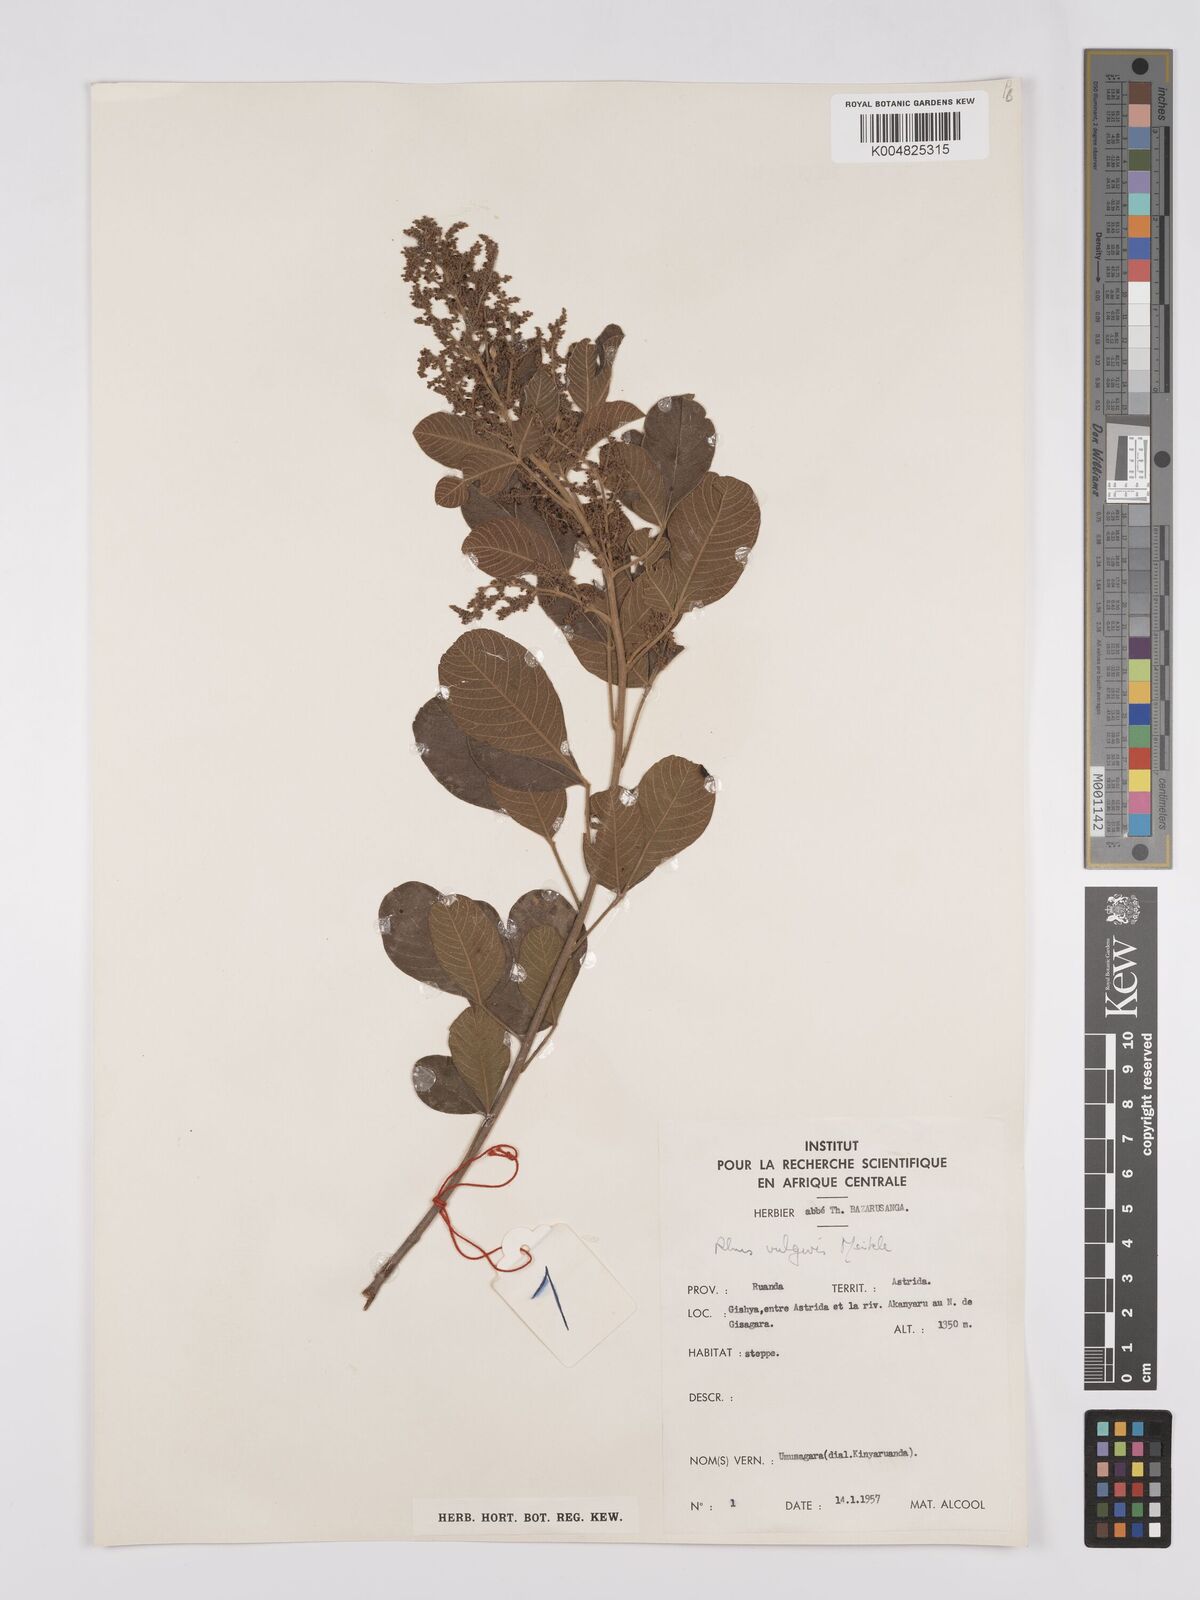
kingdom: Plantae
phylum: Tracheophyta
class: Magnoliopsida
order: Sapindales
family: Anacardiaceae
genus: Searsia
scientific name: Searsia pyroides
